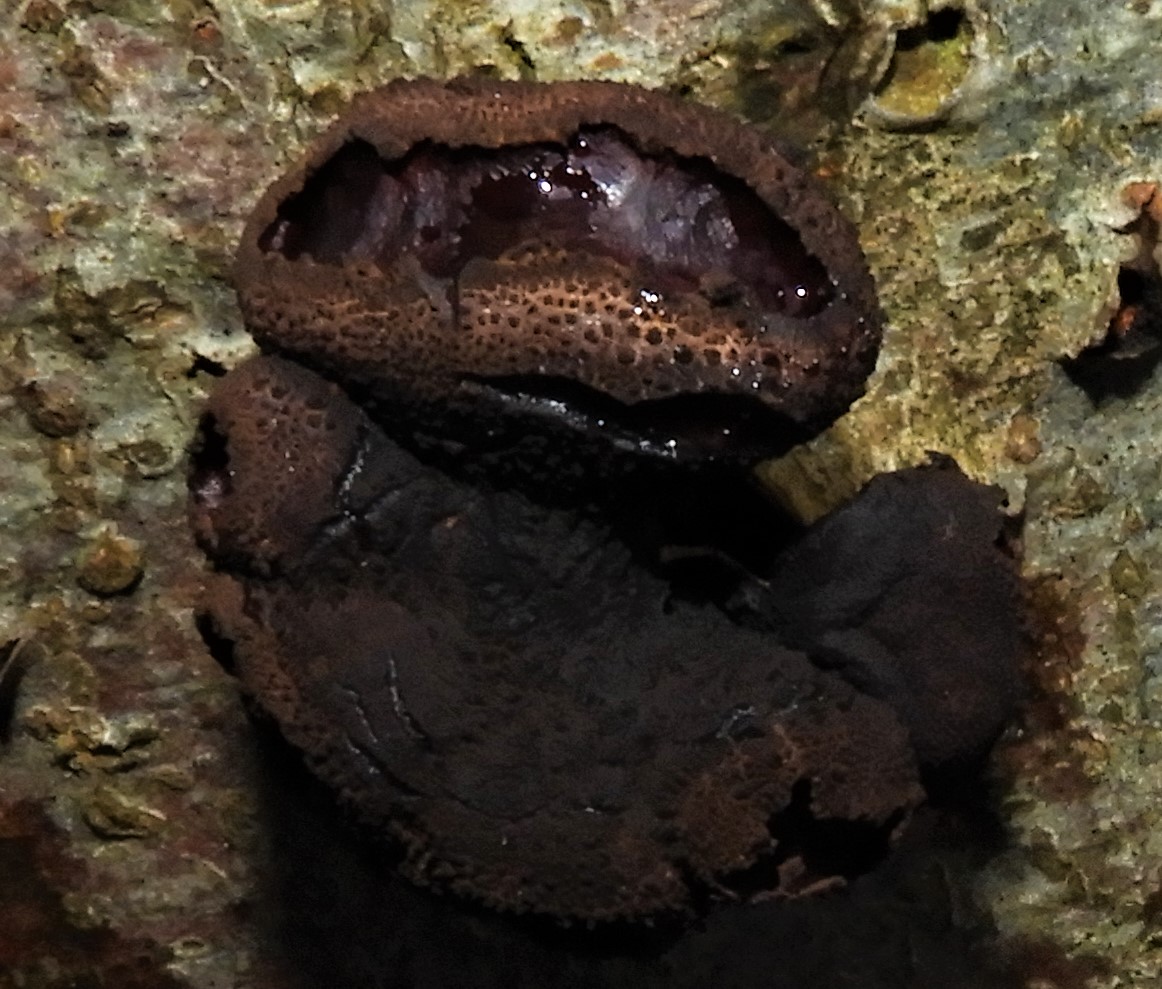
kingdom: Fungi
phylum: Ascomycota
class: Leotiomycetes
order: Phacidiales
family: Phacidiaceae
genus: Bulgaria
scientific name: Bulgaria inquinans
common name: afsmittende topsvamp
